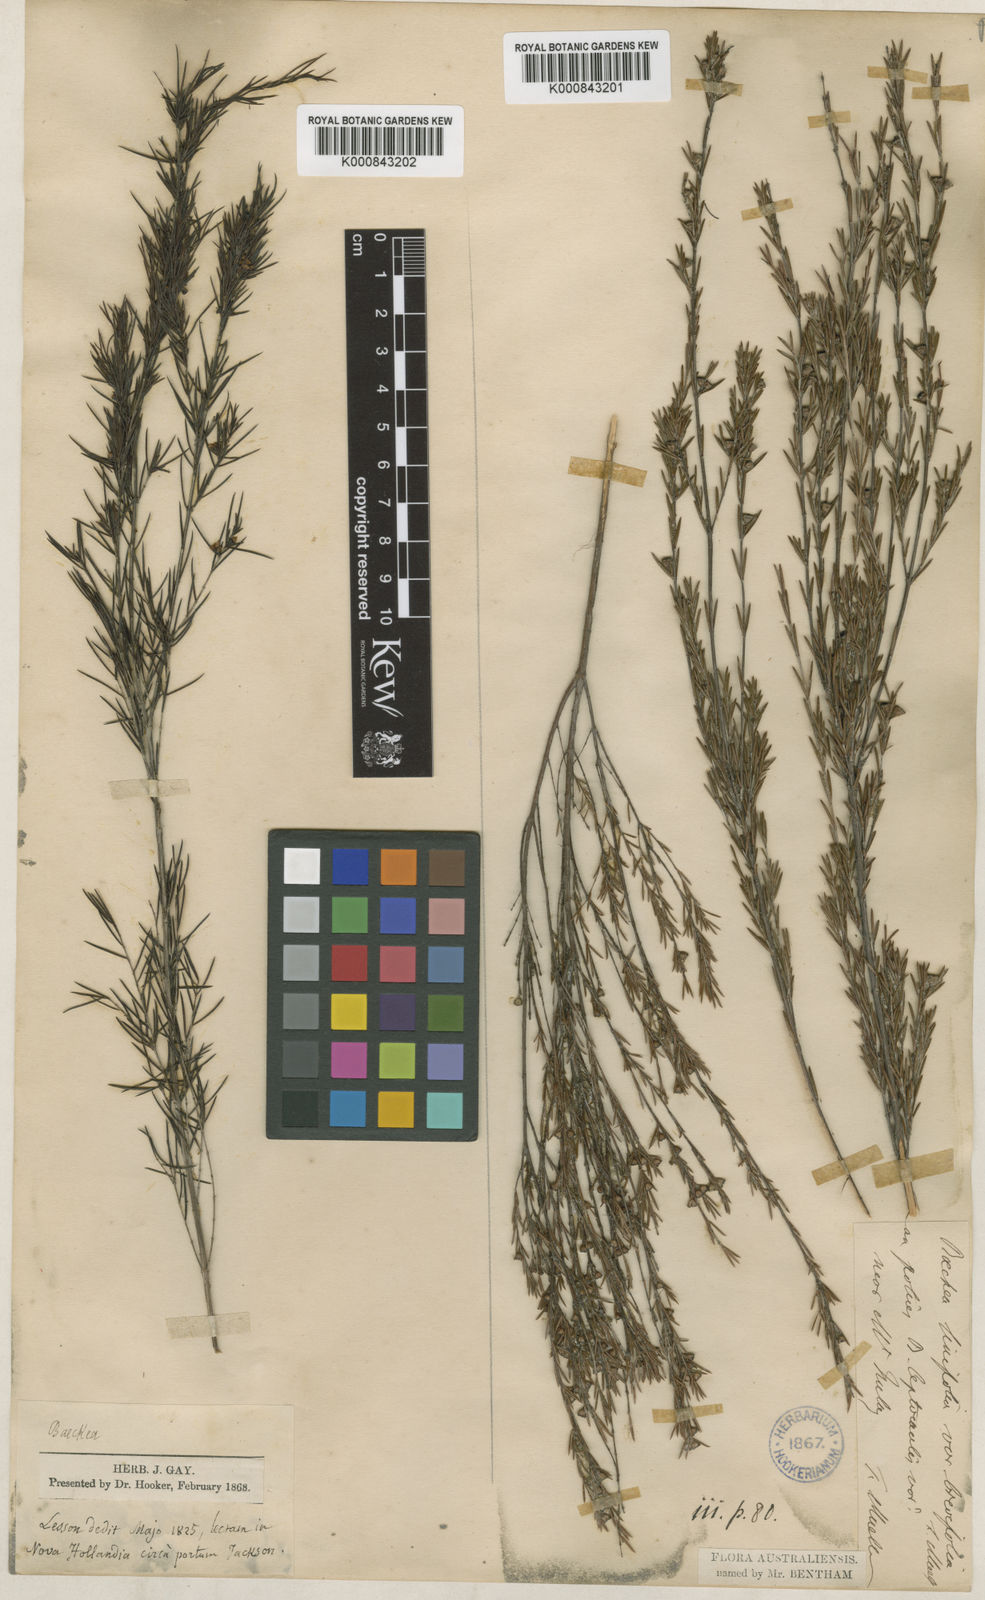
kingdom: Plantae
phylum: Tracheophyta
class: Magnoliopsida
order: Myrtales
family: Myrtaceae
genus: Baeckea
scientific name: Baeckea linifolia
